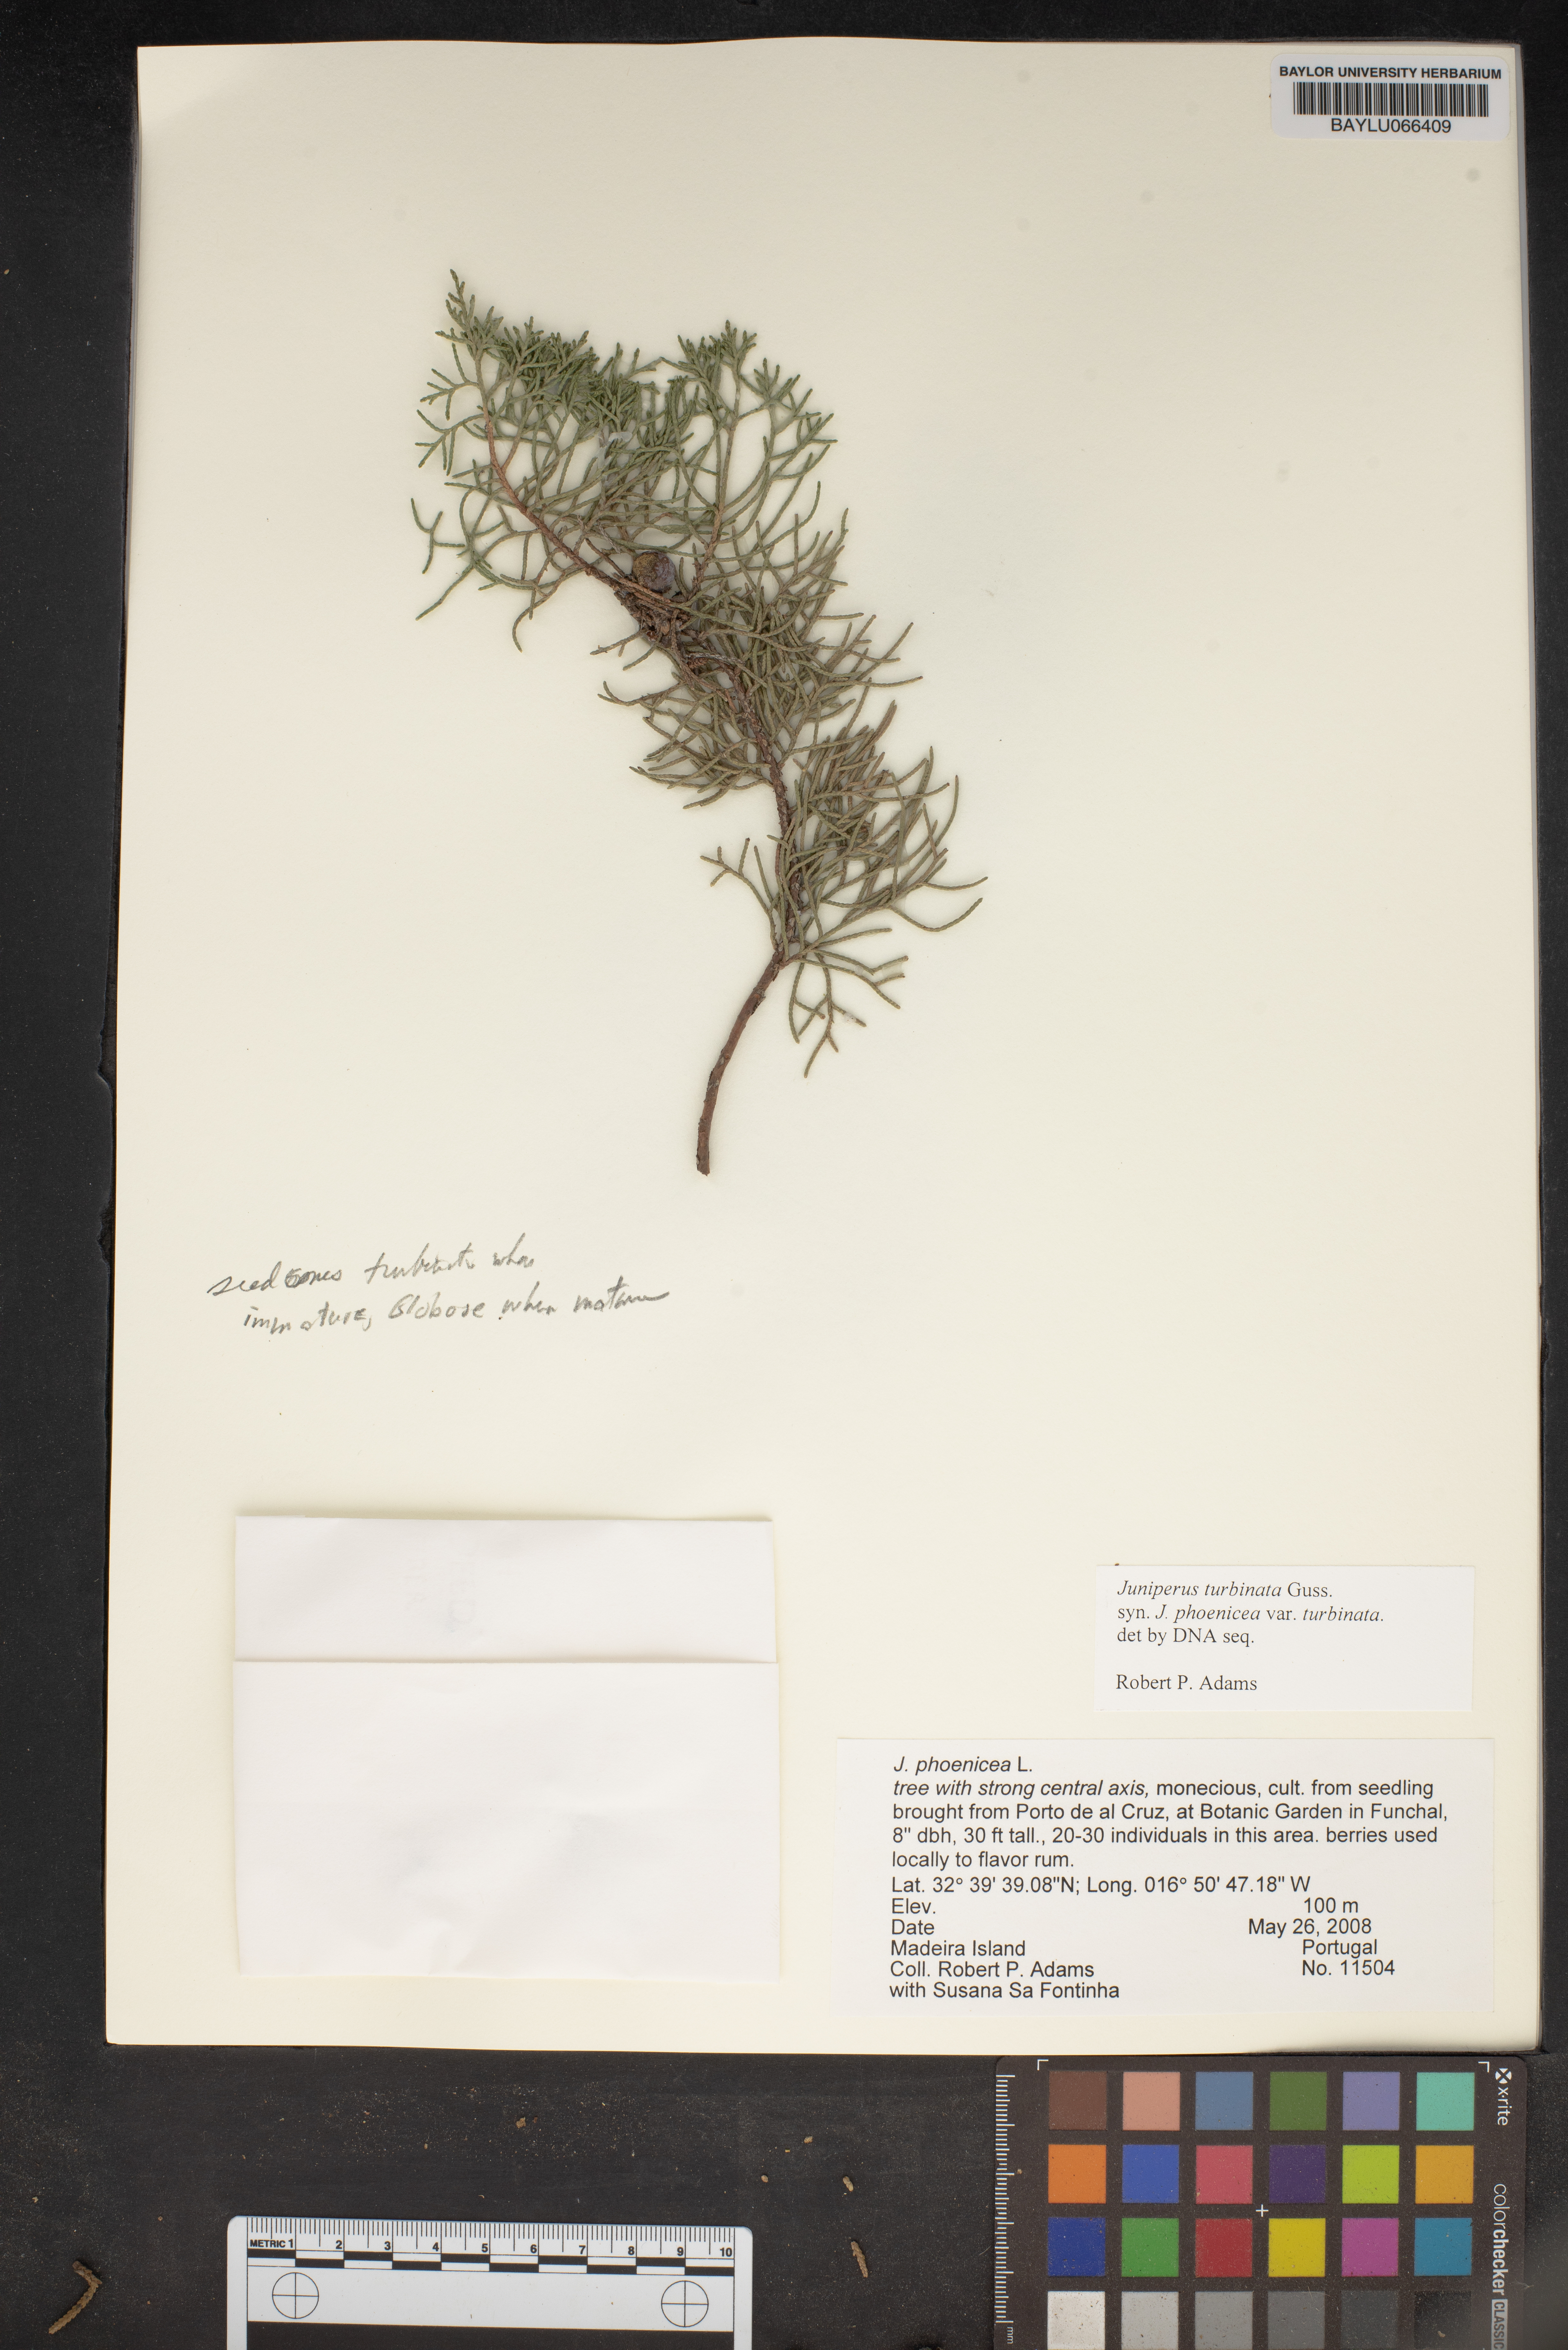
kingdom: Plantae
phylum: Tracheophyta
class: Pinopsida
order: Pinales
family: Cupressaceae
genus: Juniperus
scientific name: Juniperus phoenicea
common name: Phoenician juniper
